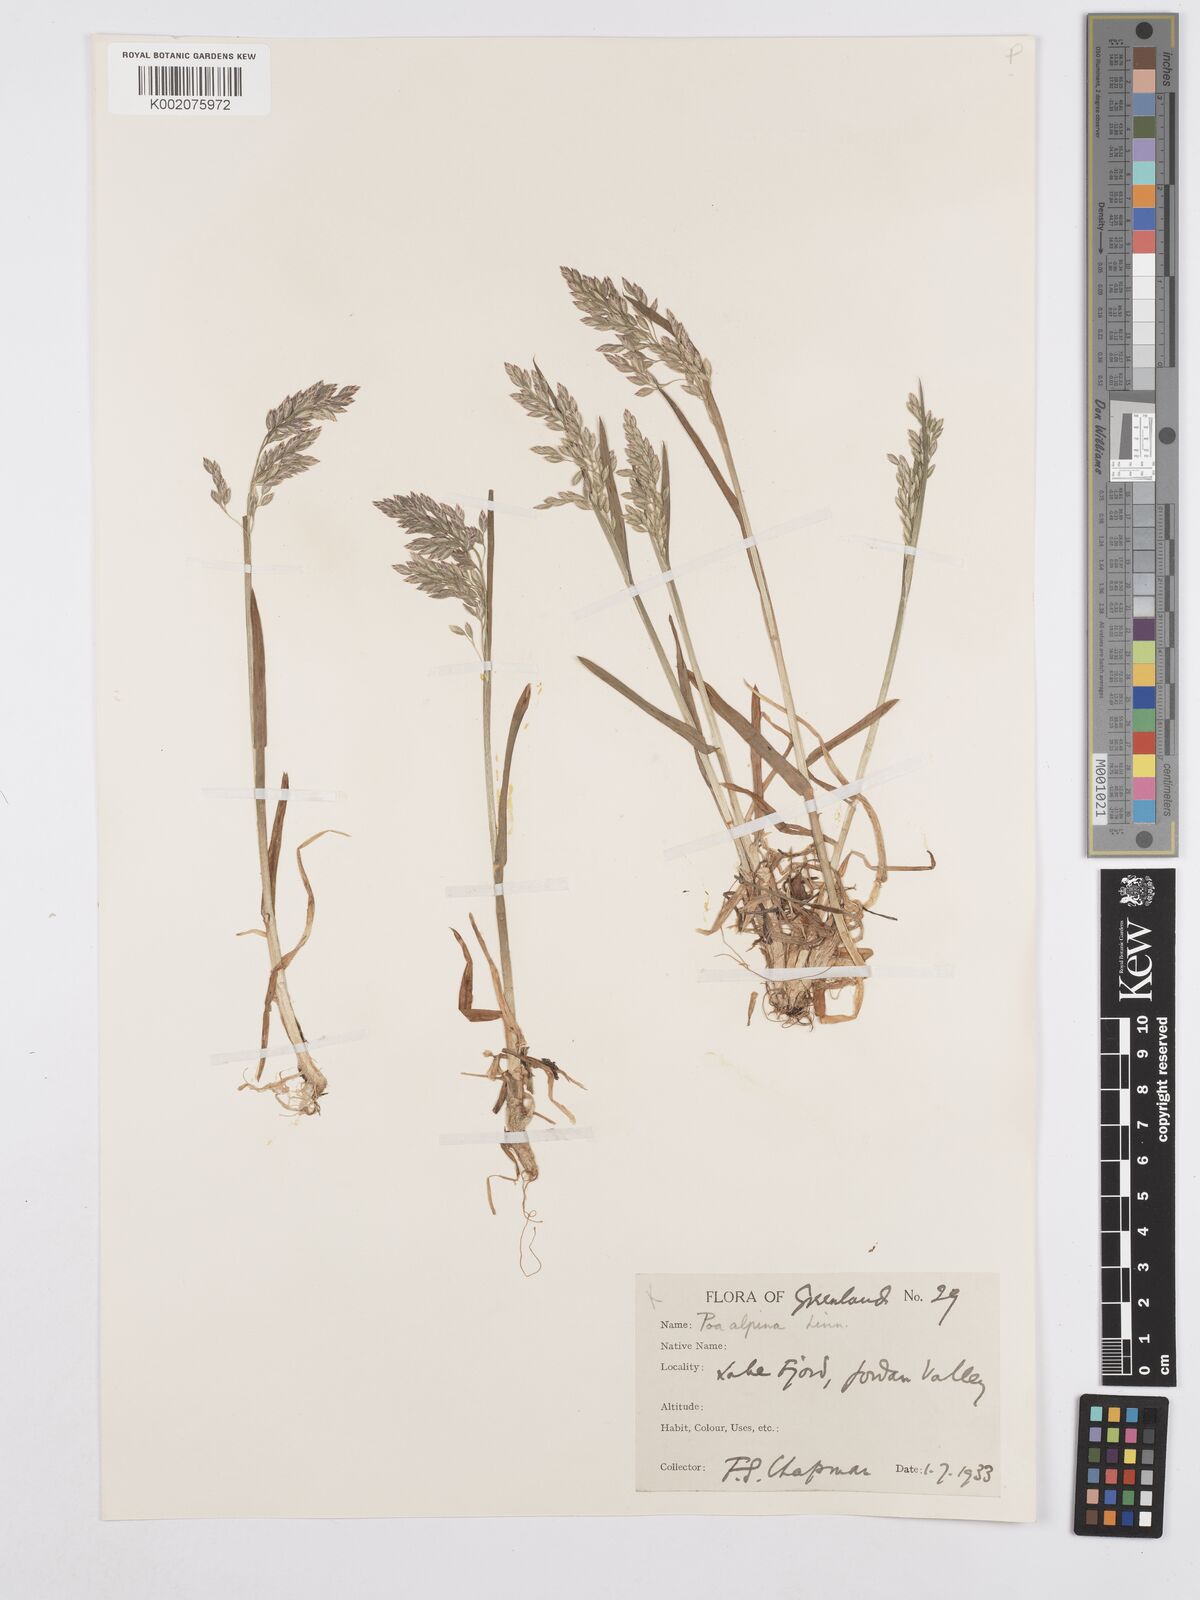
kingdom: Plantae
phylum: Tracheophyta
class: Liliopsida
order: Poales
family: Poaceae
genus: Poa
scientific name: Poa alpina
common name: Alpine bluegrass
